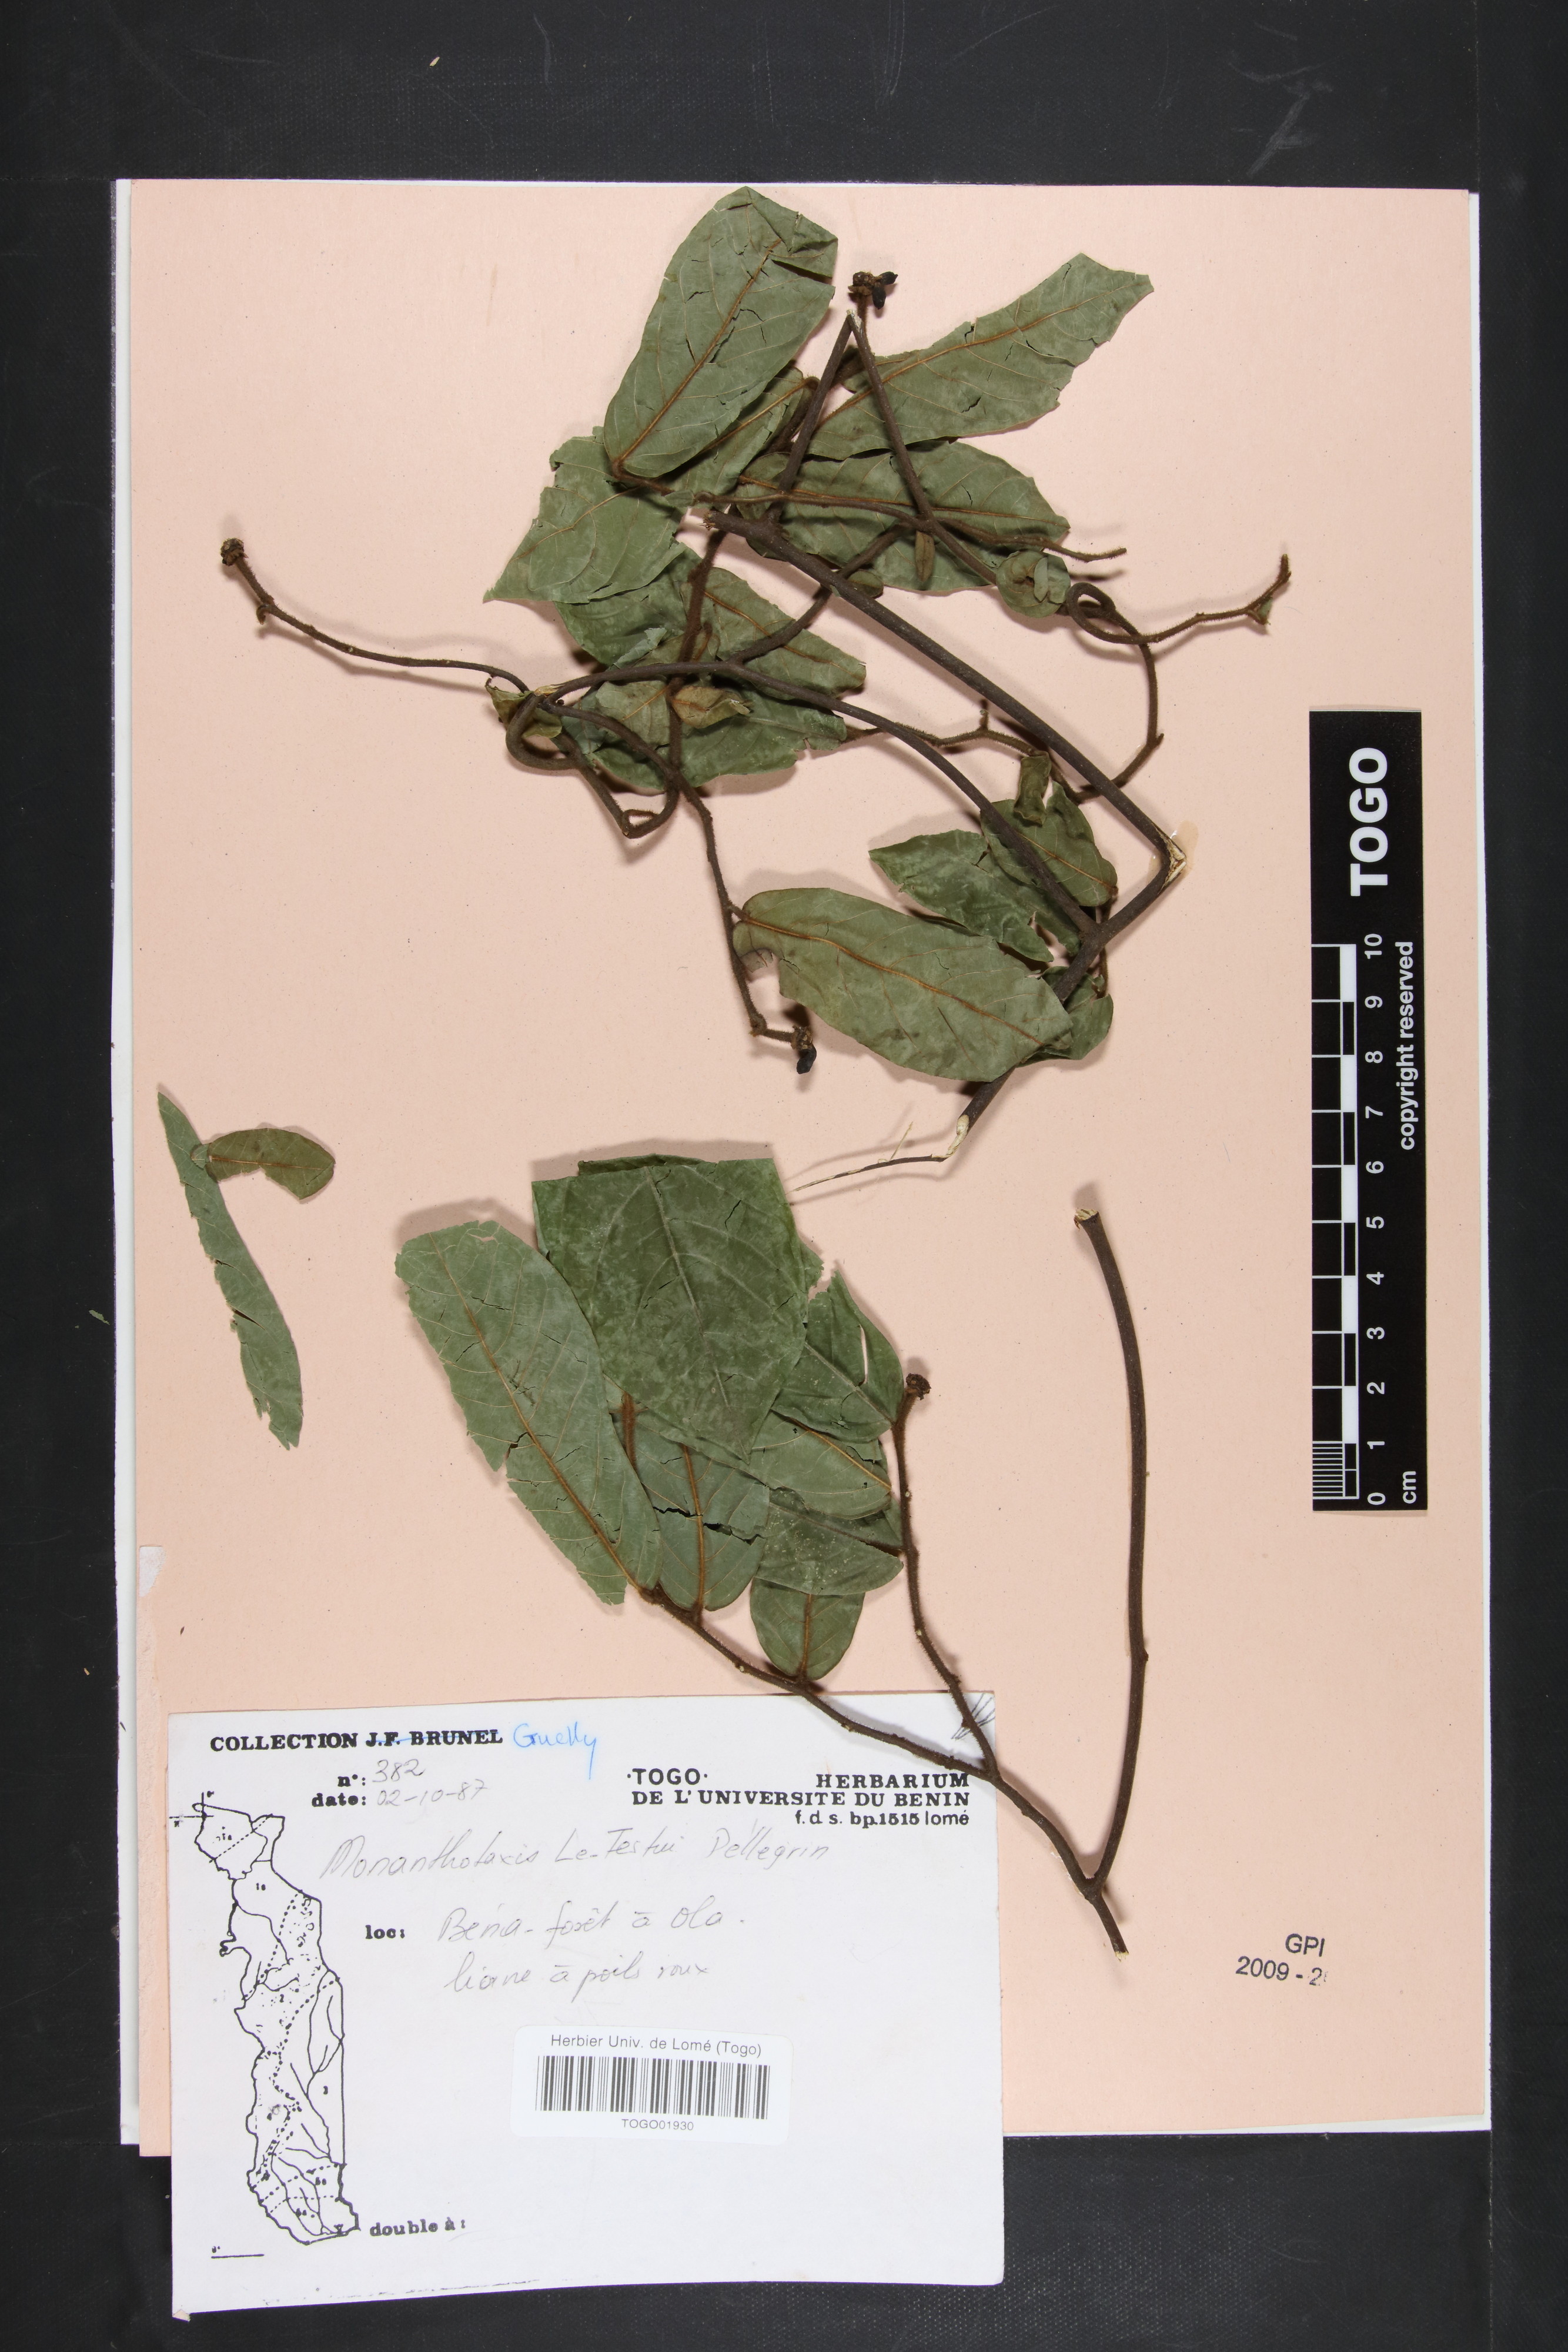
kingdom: Plantae
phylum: Tracheophyta
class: Magnoliopsida
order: Magnoliales
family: Annonaceae
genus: Monanthotaxis
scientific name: Monanthotaxis le-testui
